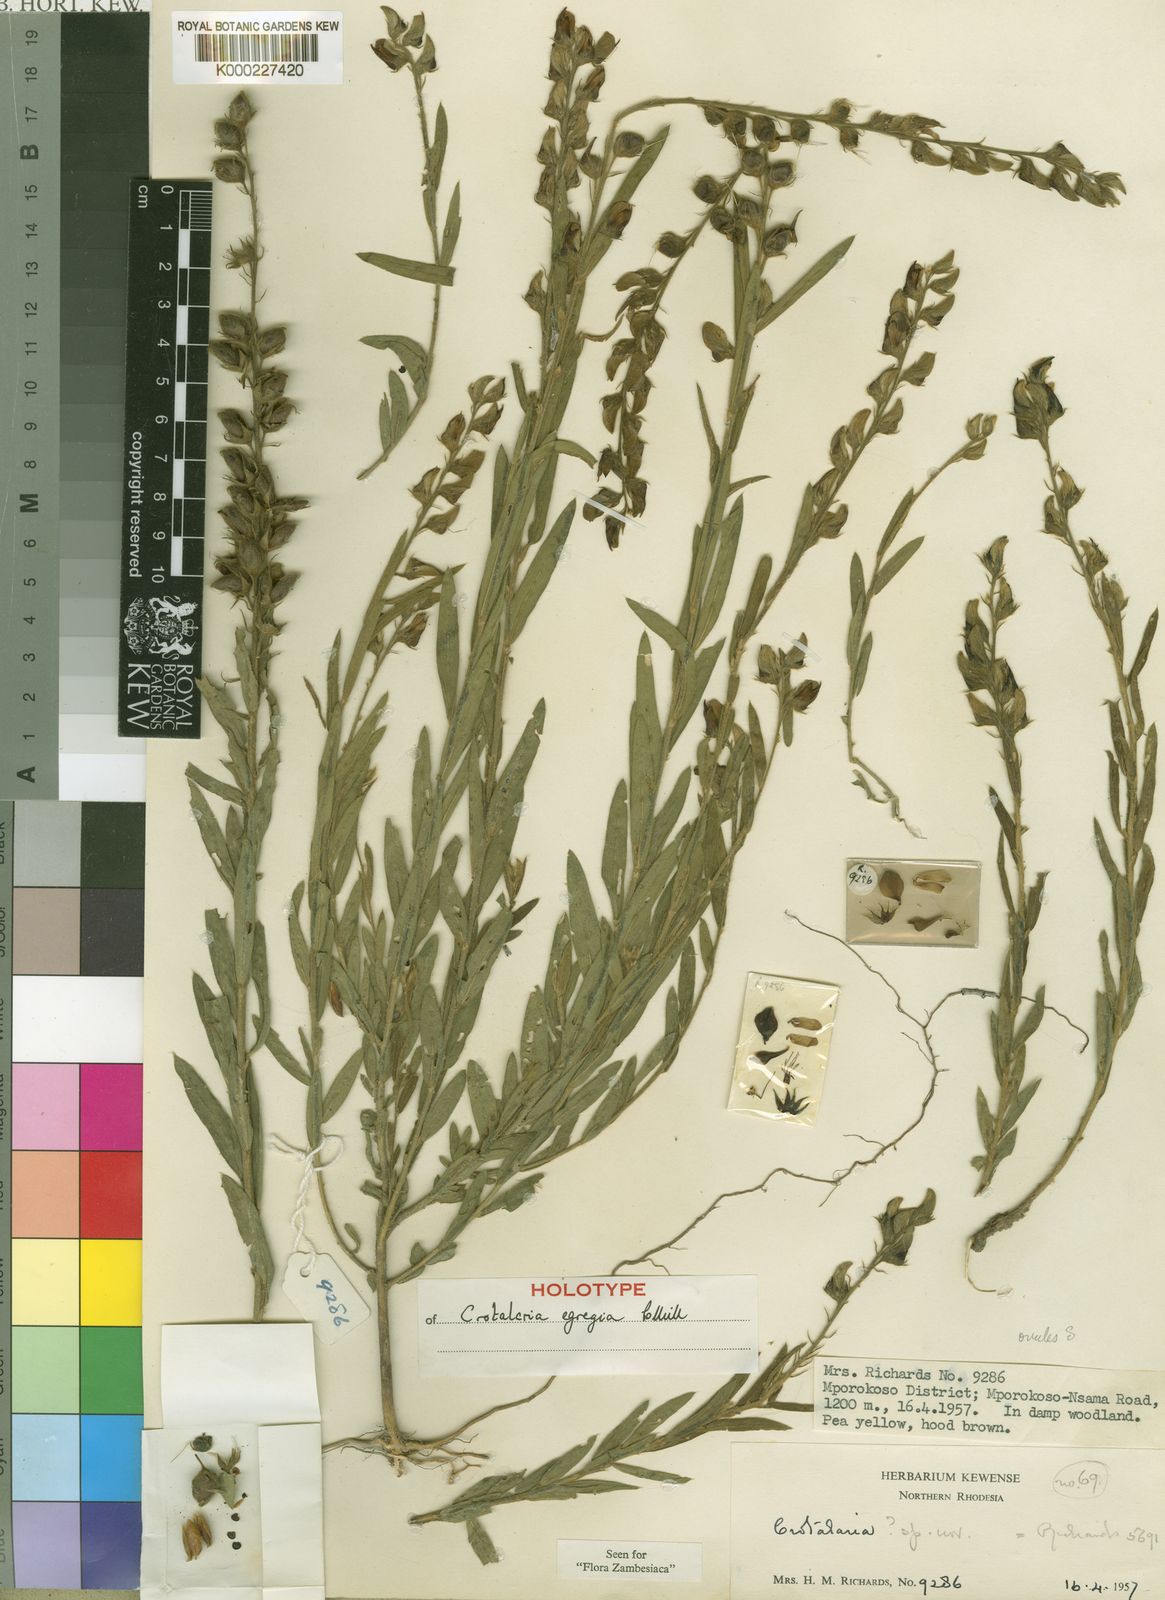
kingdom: Plantae
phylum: Tracheophyta
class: Magnoliopsida
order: Fabales
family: Fabaceae
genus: Crotalaria
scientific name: Crotalaria egregia
